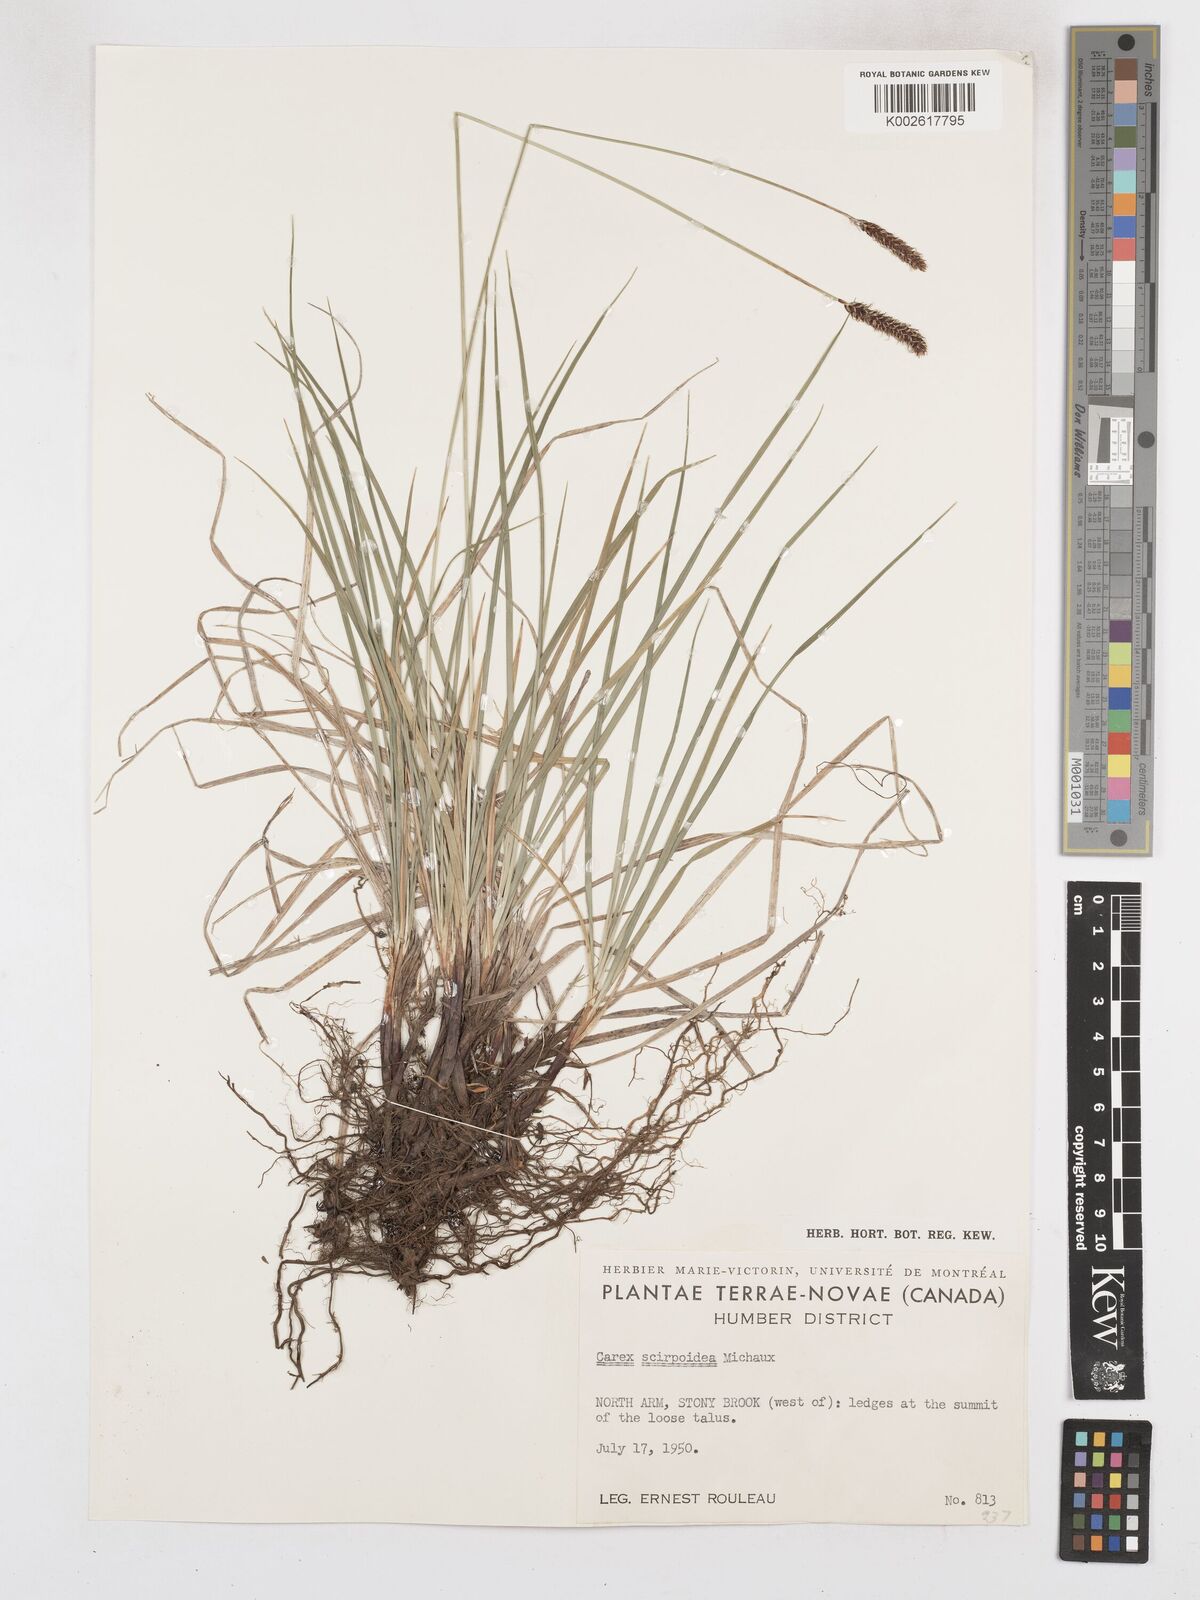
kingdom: Plantae
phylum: Tracheophyta
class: Liliopsida
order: Poales
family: Cyperaceae
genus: Carex
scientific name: Carex scirpoidea
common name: Canada single-spike sedge
